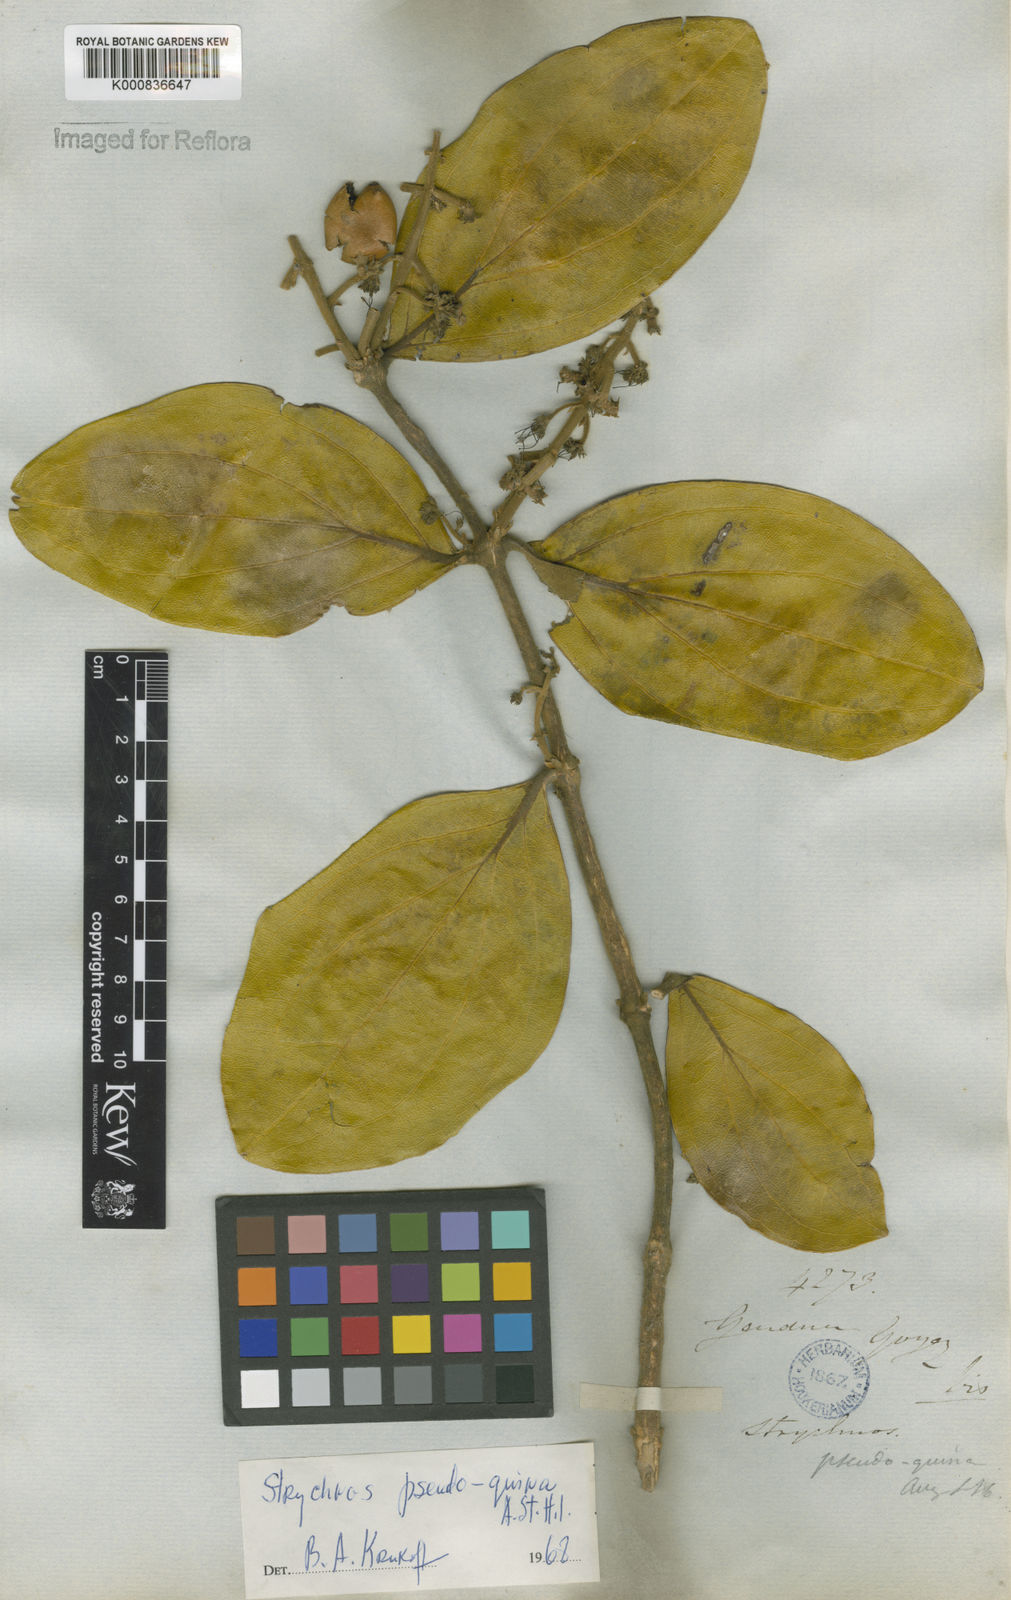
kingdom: Plantae
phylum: Tracheophyta
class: Magnoliopsida
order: Gentianales
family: Loganiaceae
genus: Strychnos
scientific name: Strychnos pseudoquina
